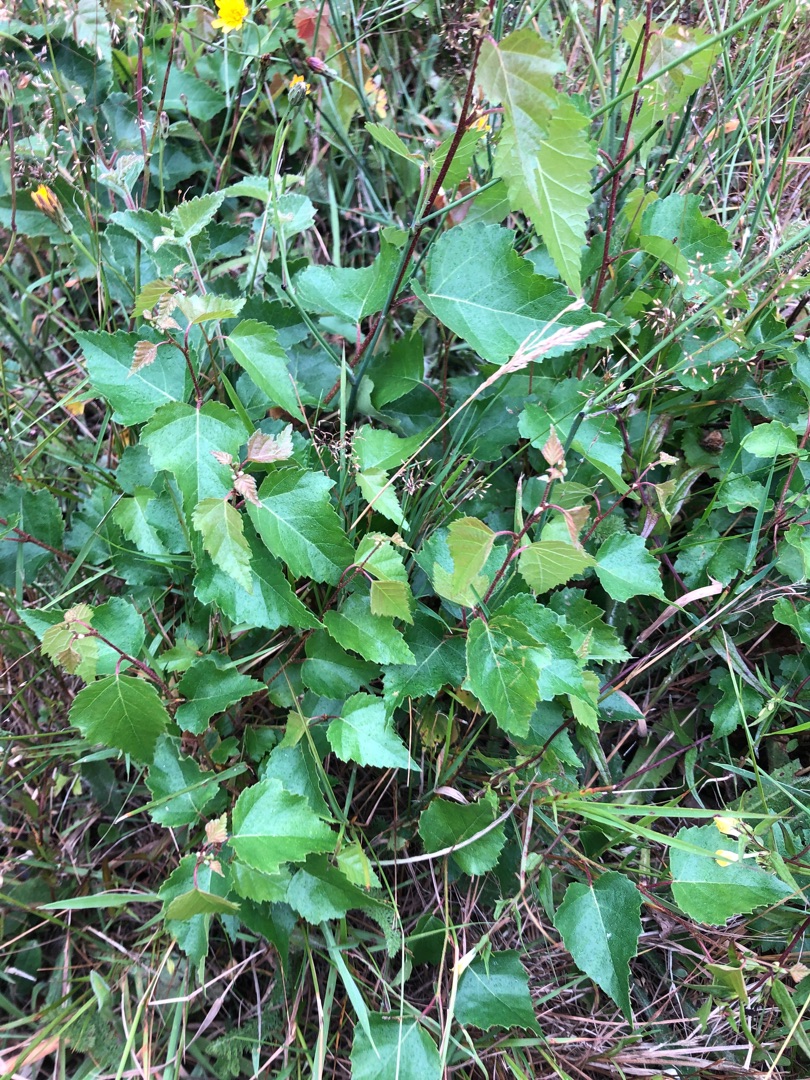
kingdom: Plantae
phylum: Tracheophyta
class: Magnoliopsida
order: Fagales
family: Betulaceae
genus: Betula
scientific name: Betula pendula
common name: Vorte-birk
